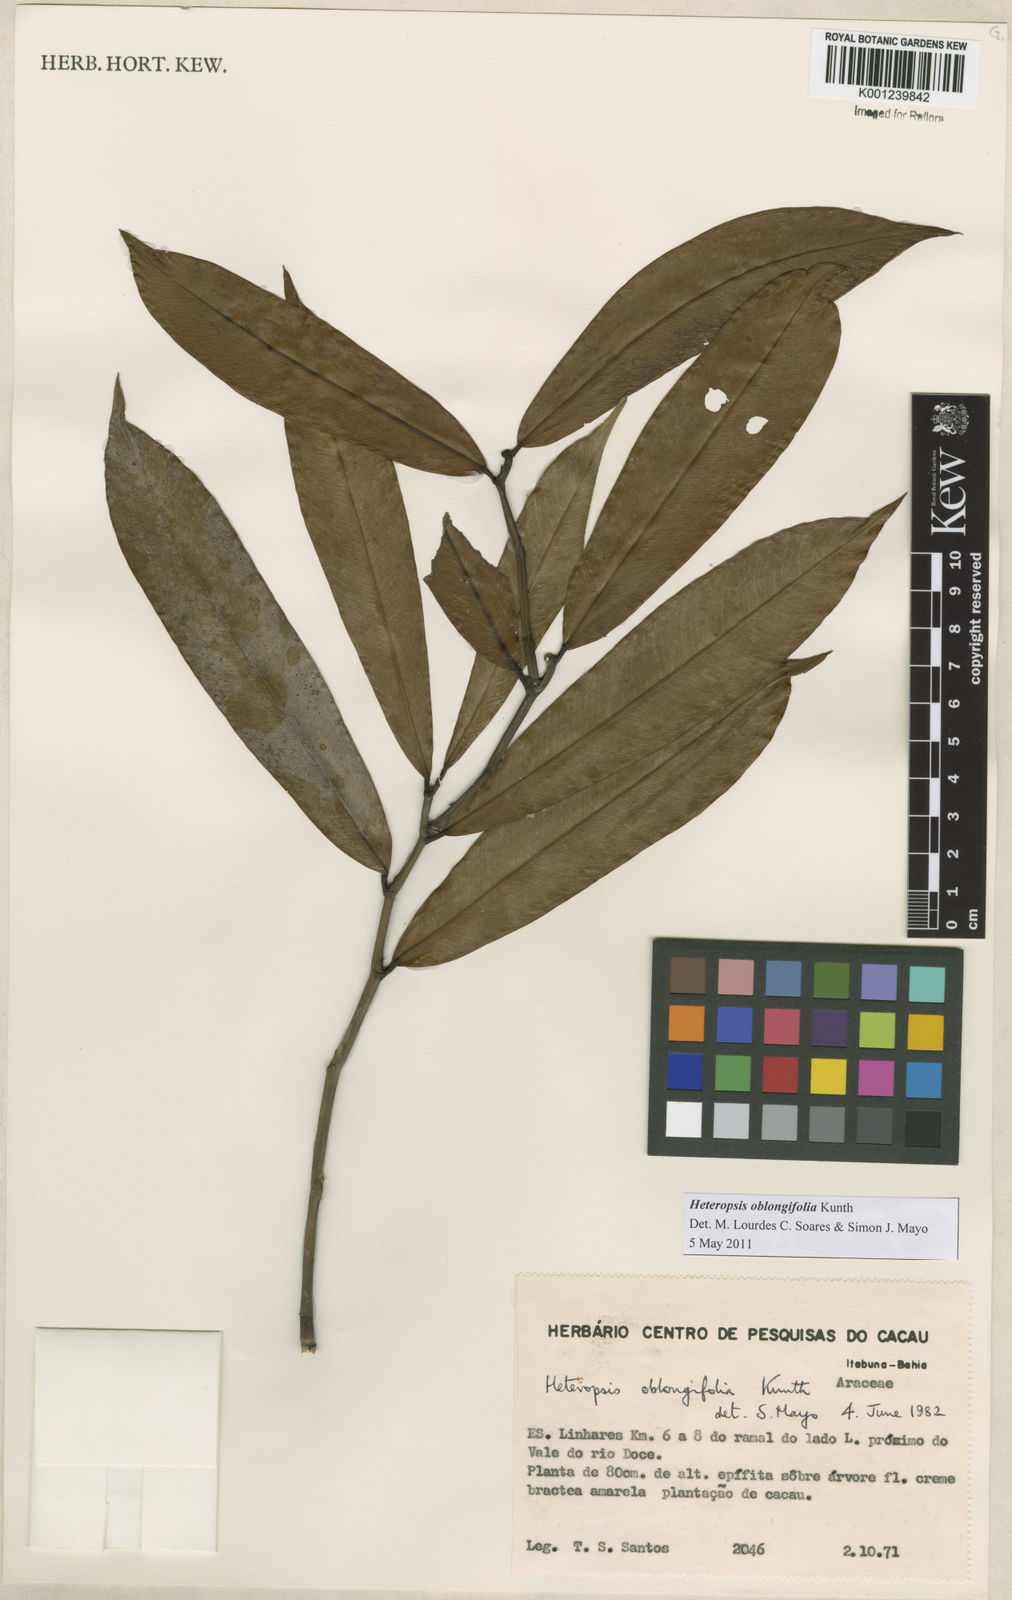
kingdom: Plantae
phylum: Tracheophyta
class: Liliopsida
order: Alismatales
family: Araceae
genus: Heteropsis
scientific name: Heteropsis oblongifolia
